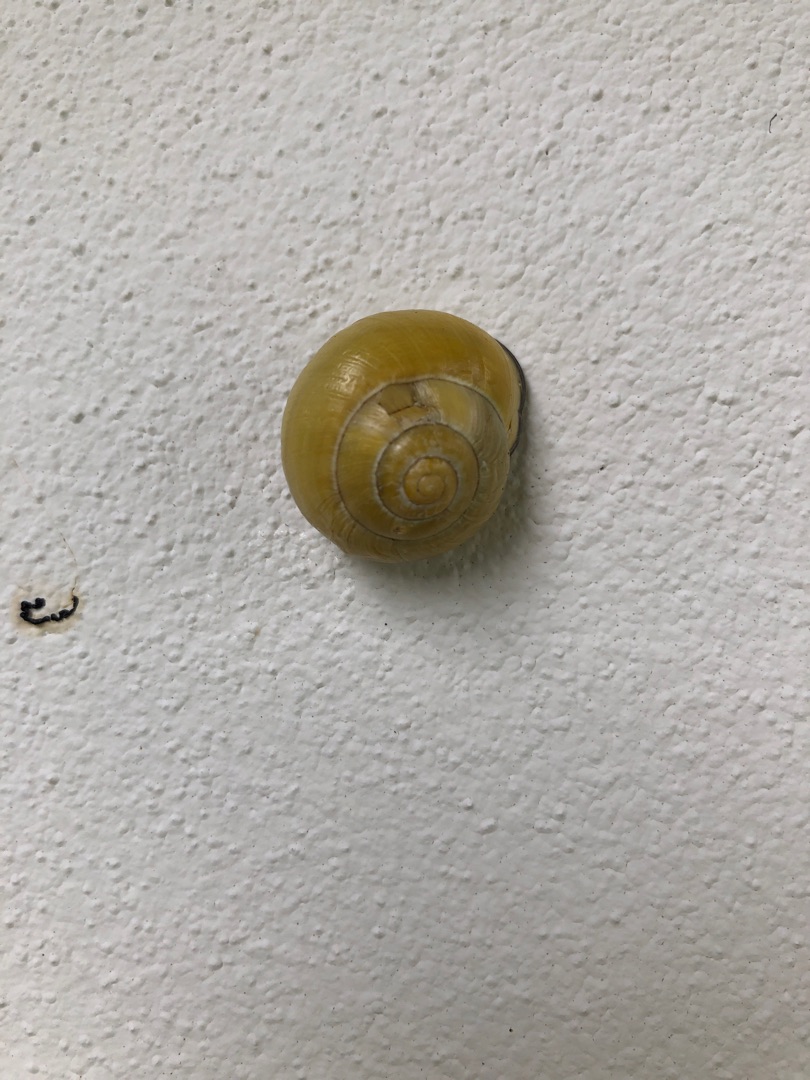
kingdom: Animalia
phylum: Mollusca
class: Gastropoda
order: Stylommatophora
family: Helicidae
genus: Cepaea
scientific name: Cepaea nemoralis
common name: Lundsnegl
